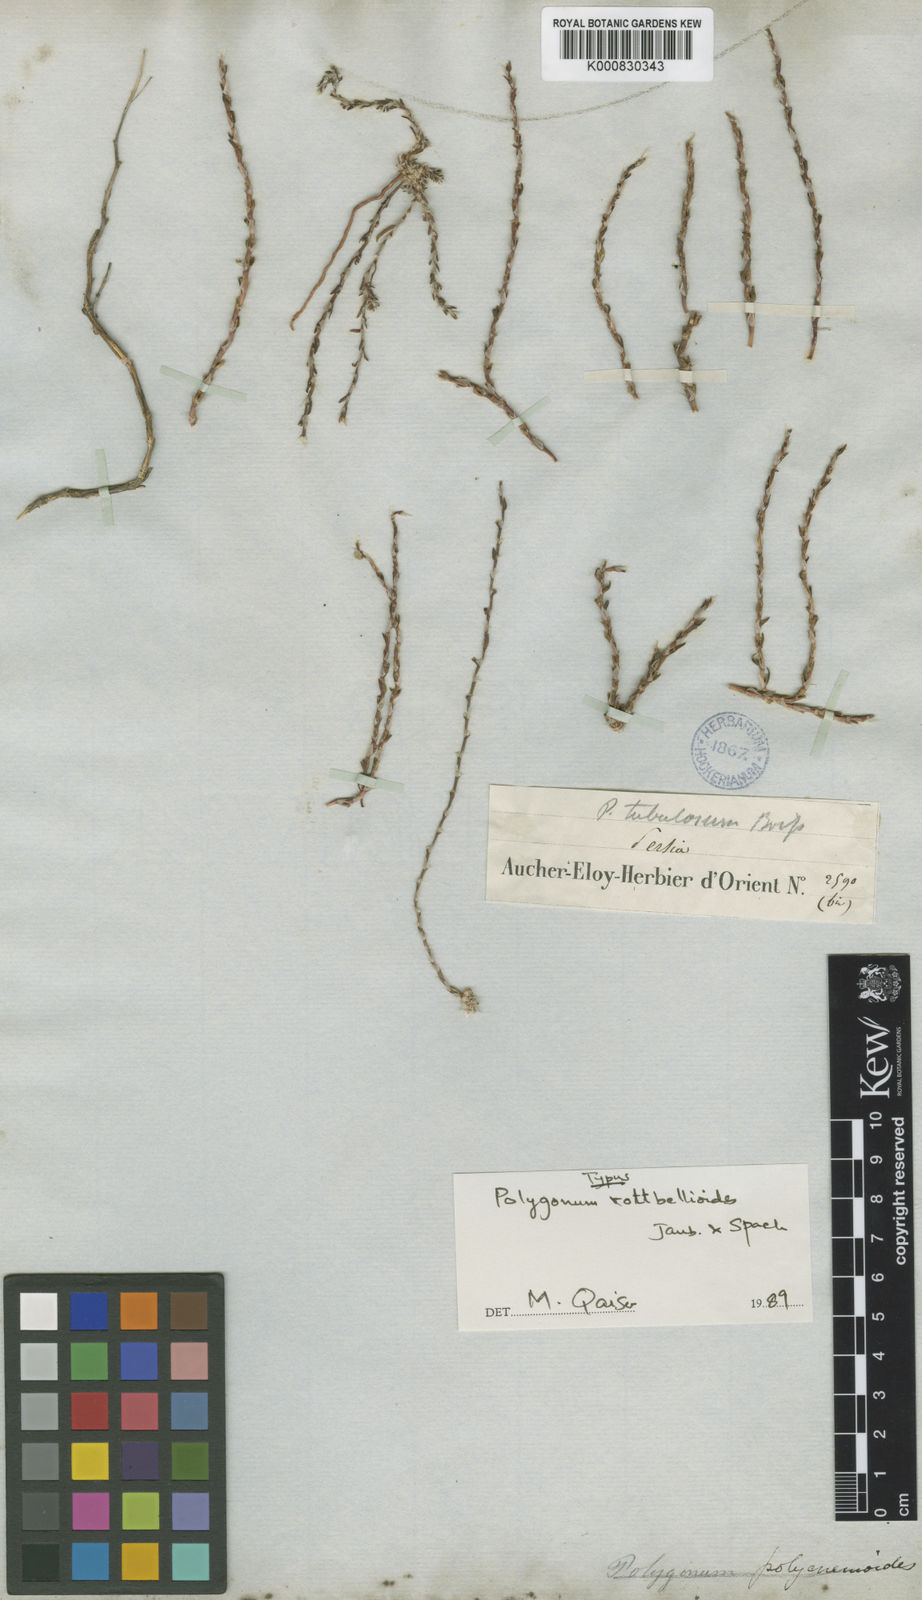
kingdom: Plantae
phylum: Tracheophyta
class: Magnoliopsida
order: Caryophyllales
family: Polygonaceae
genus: Polygonum
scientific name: Polygonum rottboellioides
